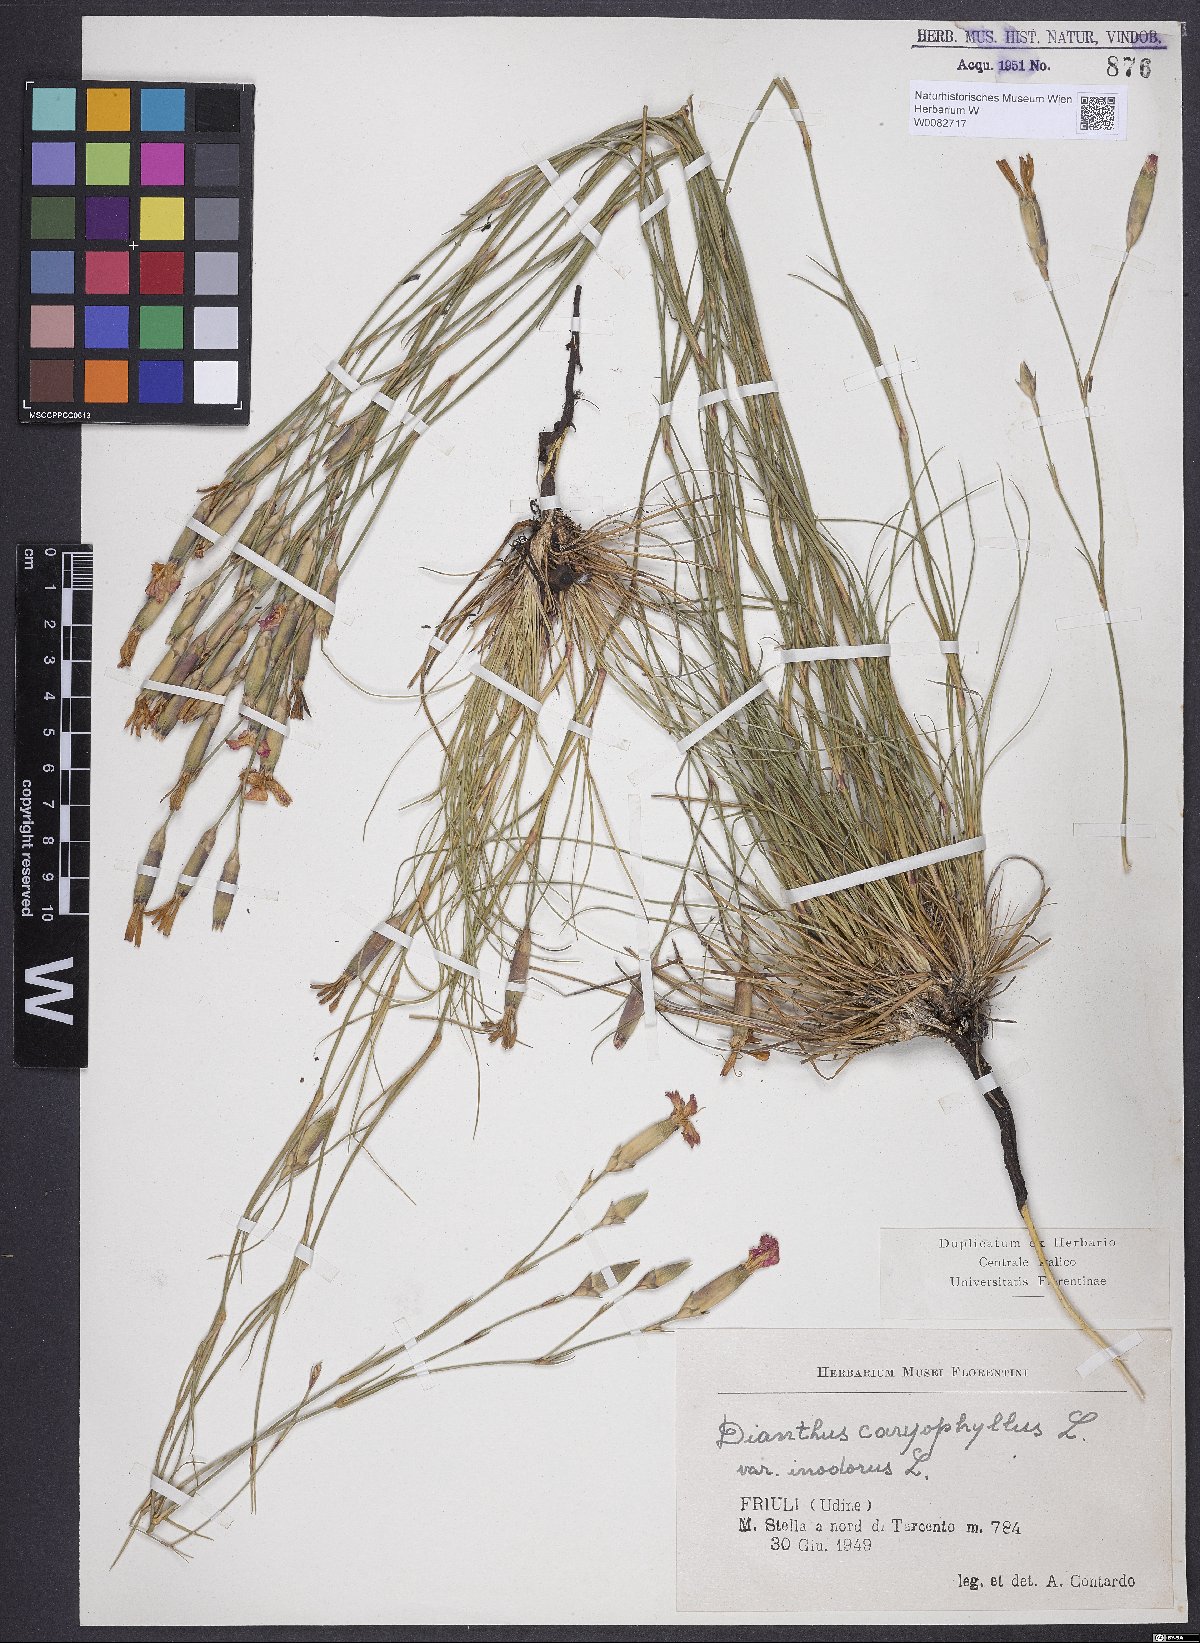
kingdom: Plantae
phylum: Tracheophyta
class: Magnoliopsida
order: Caryophyllales
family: Caryophyllaceae
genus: Dianthus
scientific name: Dianthus caryophyllus
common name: Clove pink
